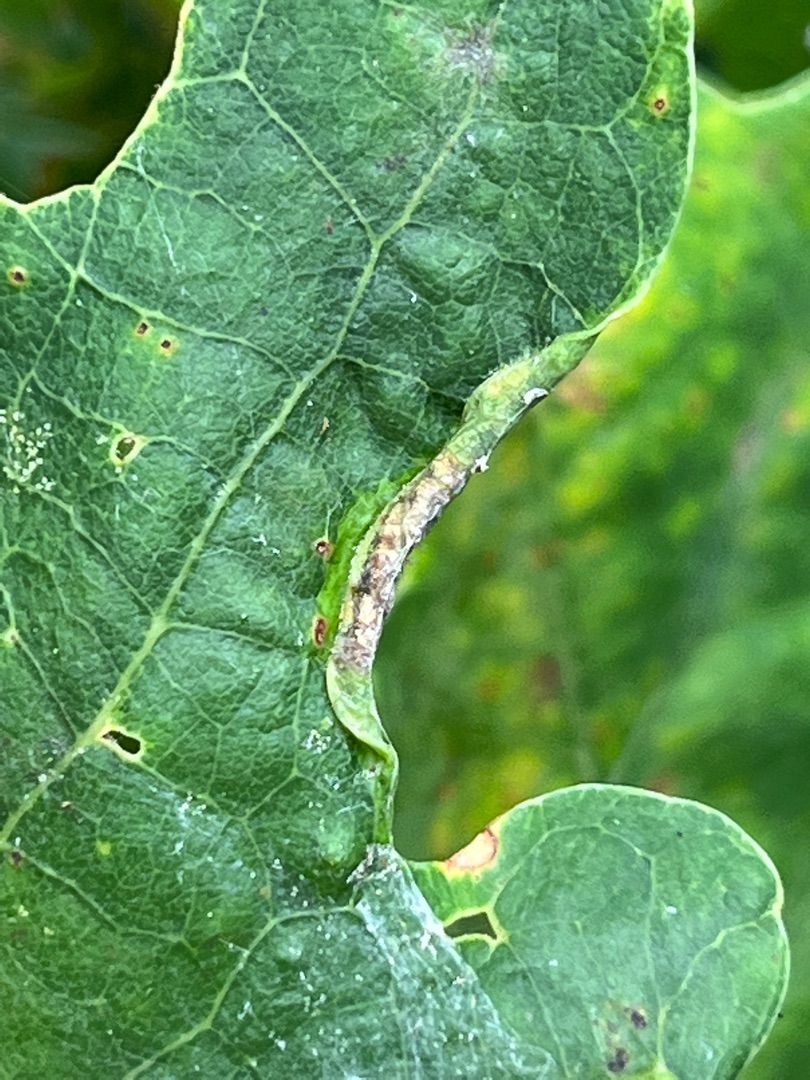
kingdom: Animalia
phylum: Arthropoda
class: Insecta
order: Diptera
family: Cecidomyiidae
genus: Macrodiplosis
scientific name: Macrodiplosis volvens
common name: Egerullegalmyg
